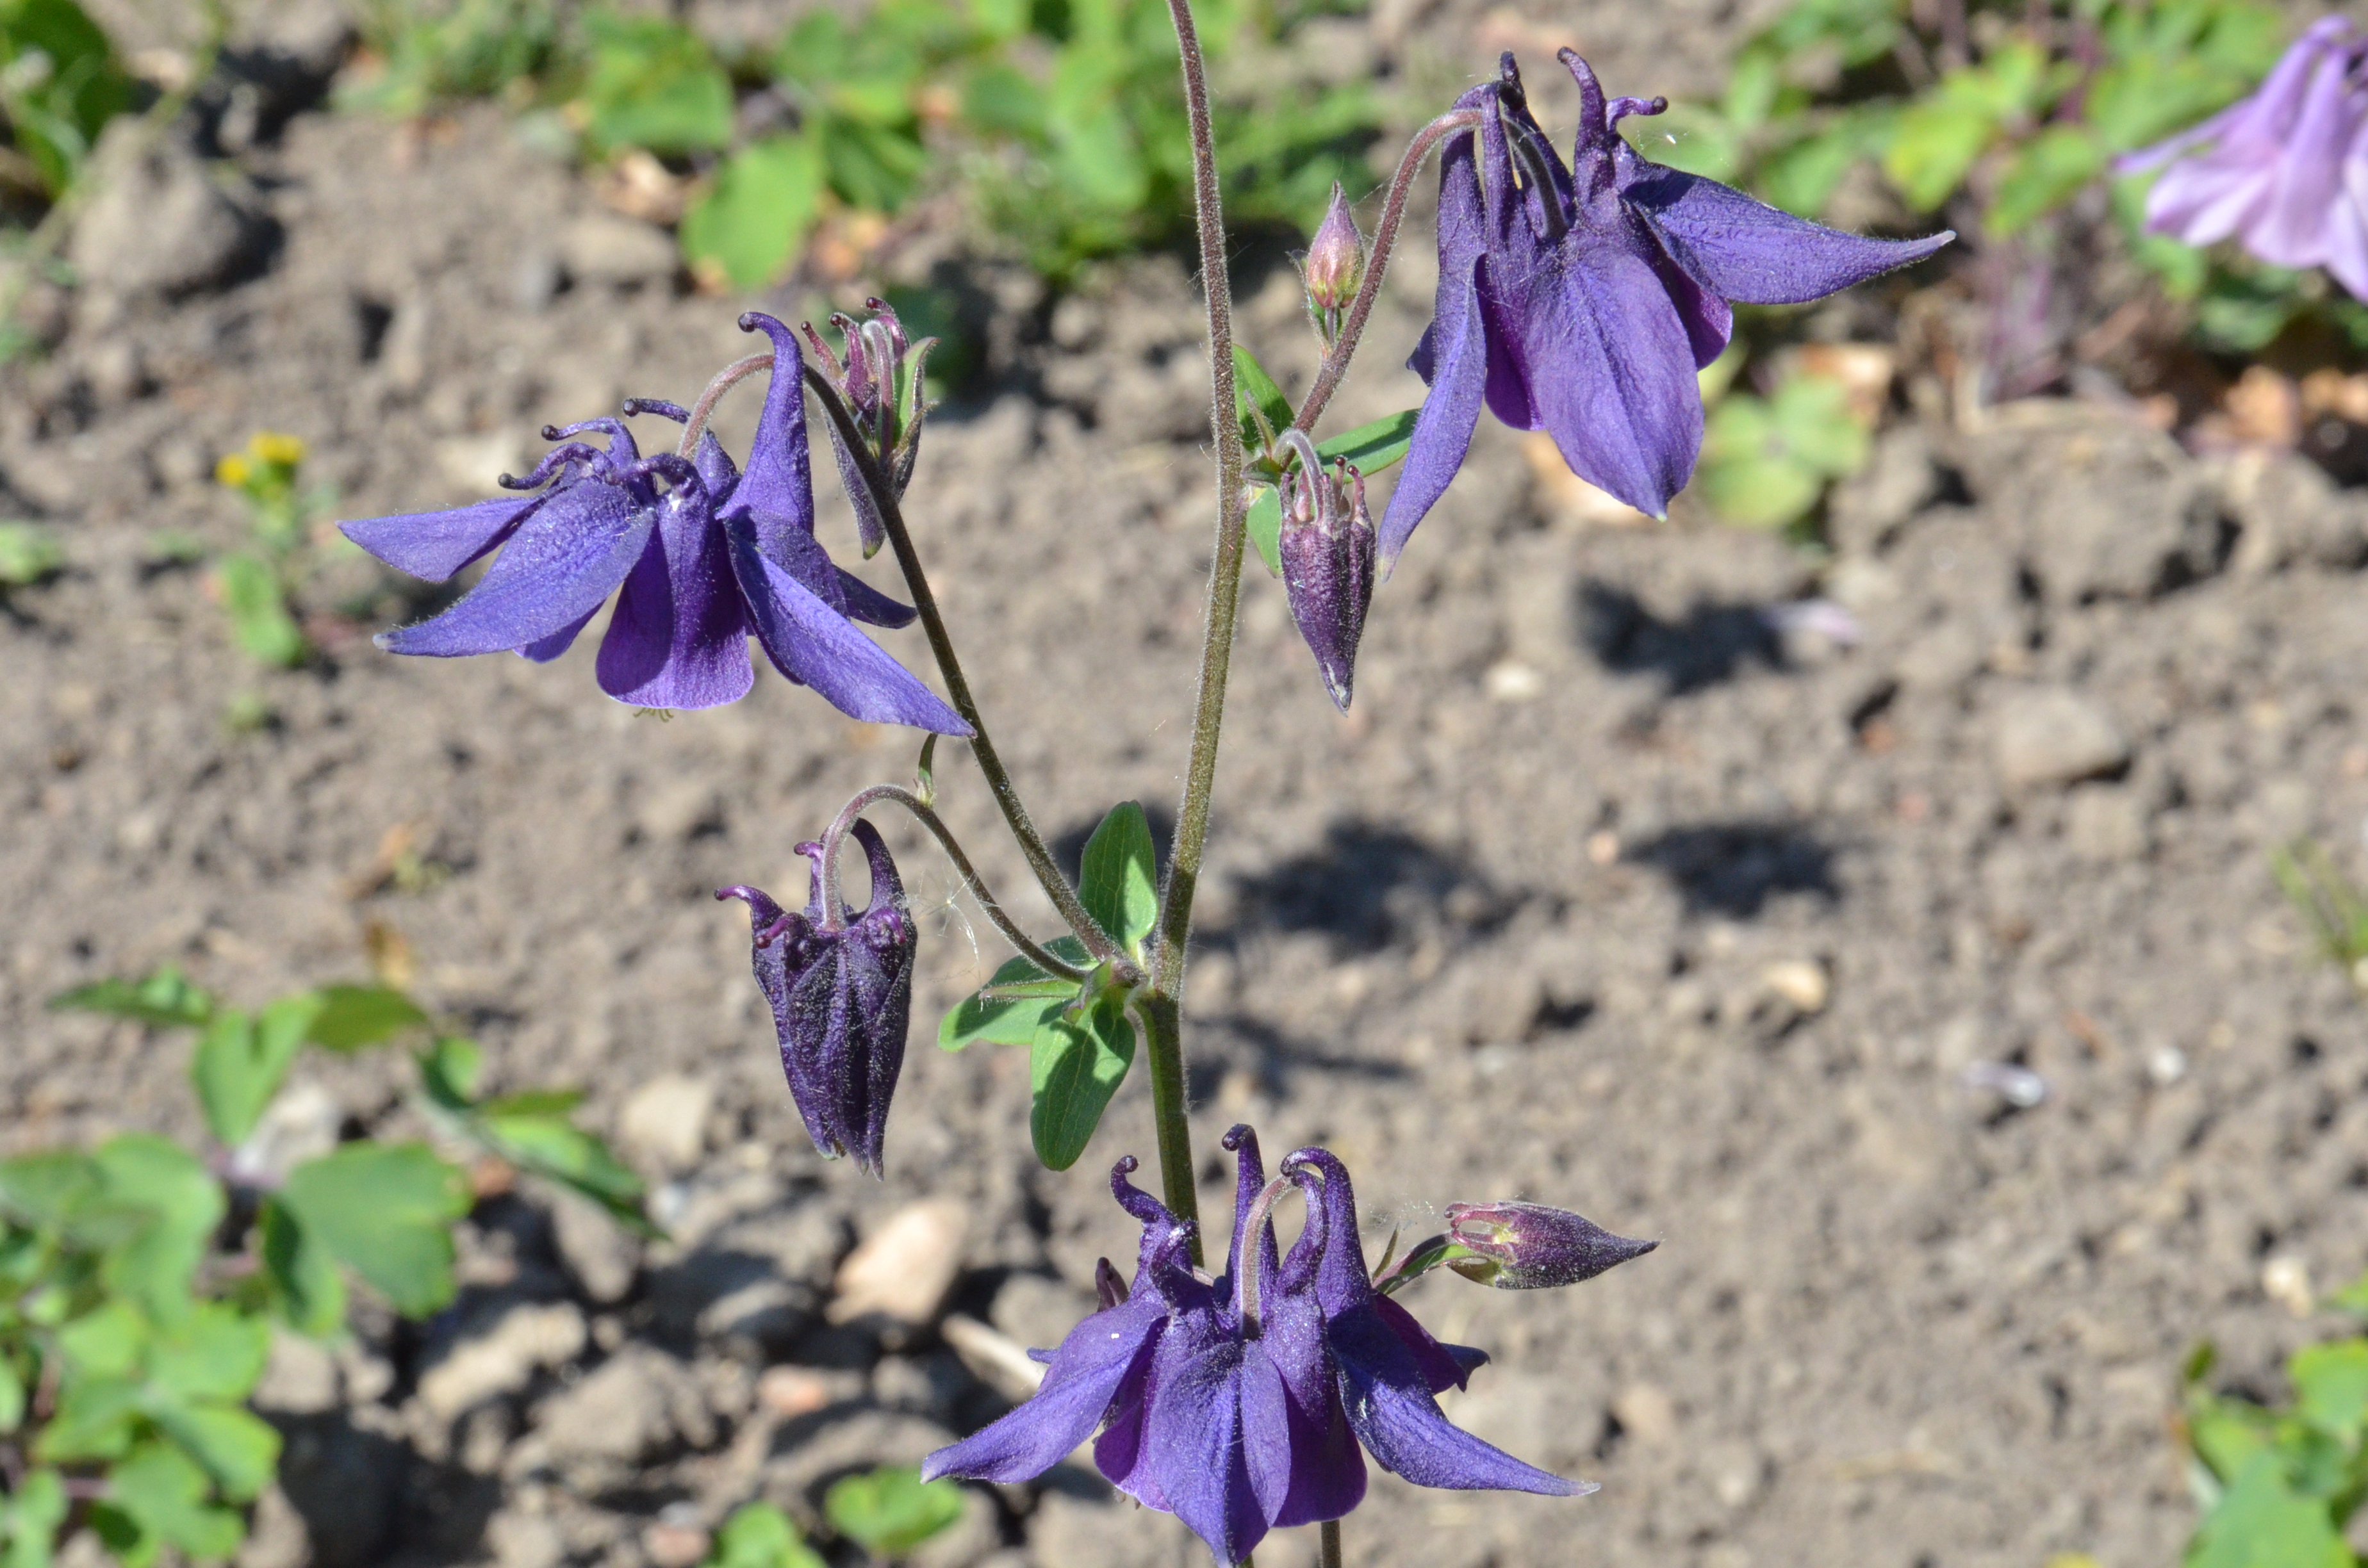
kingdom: Plantae
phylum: Tracheophyta
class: Magnoliopsida
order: Ranunculales
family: Ranunculaceae
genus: Aquilegia
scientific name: Aquilegia vulgaris
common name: Columbine
